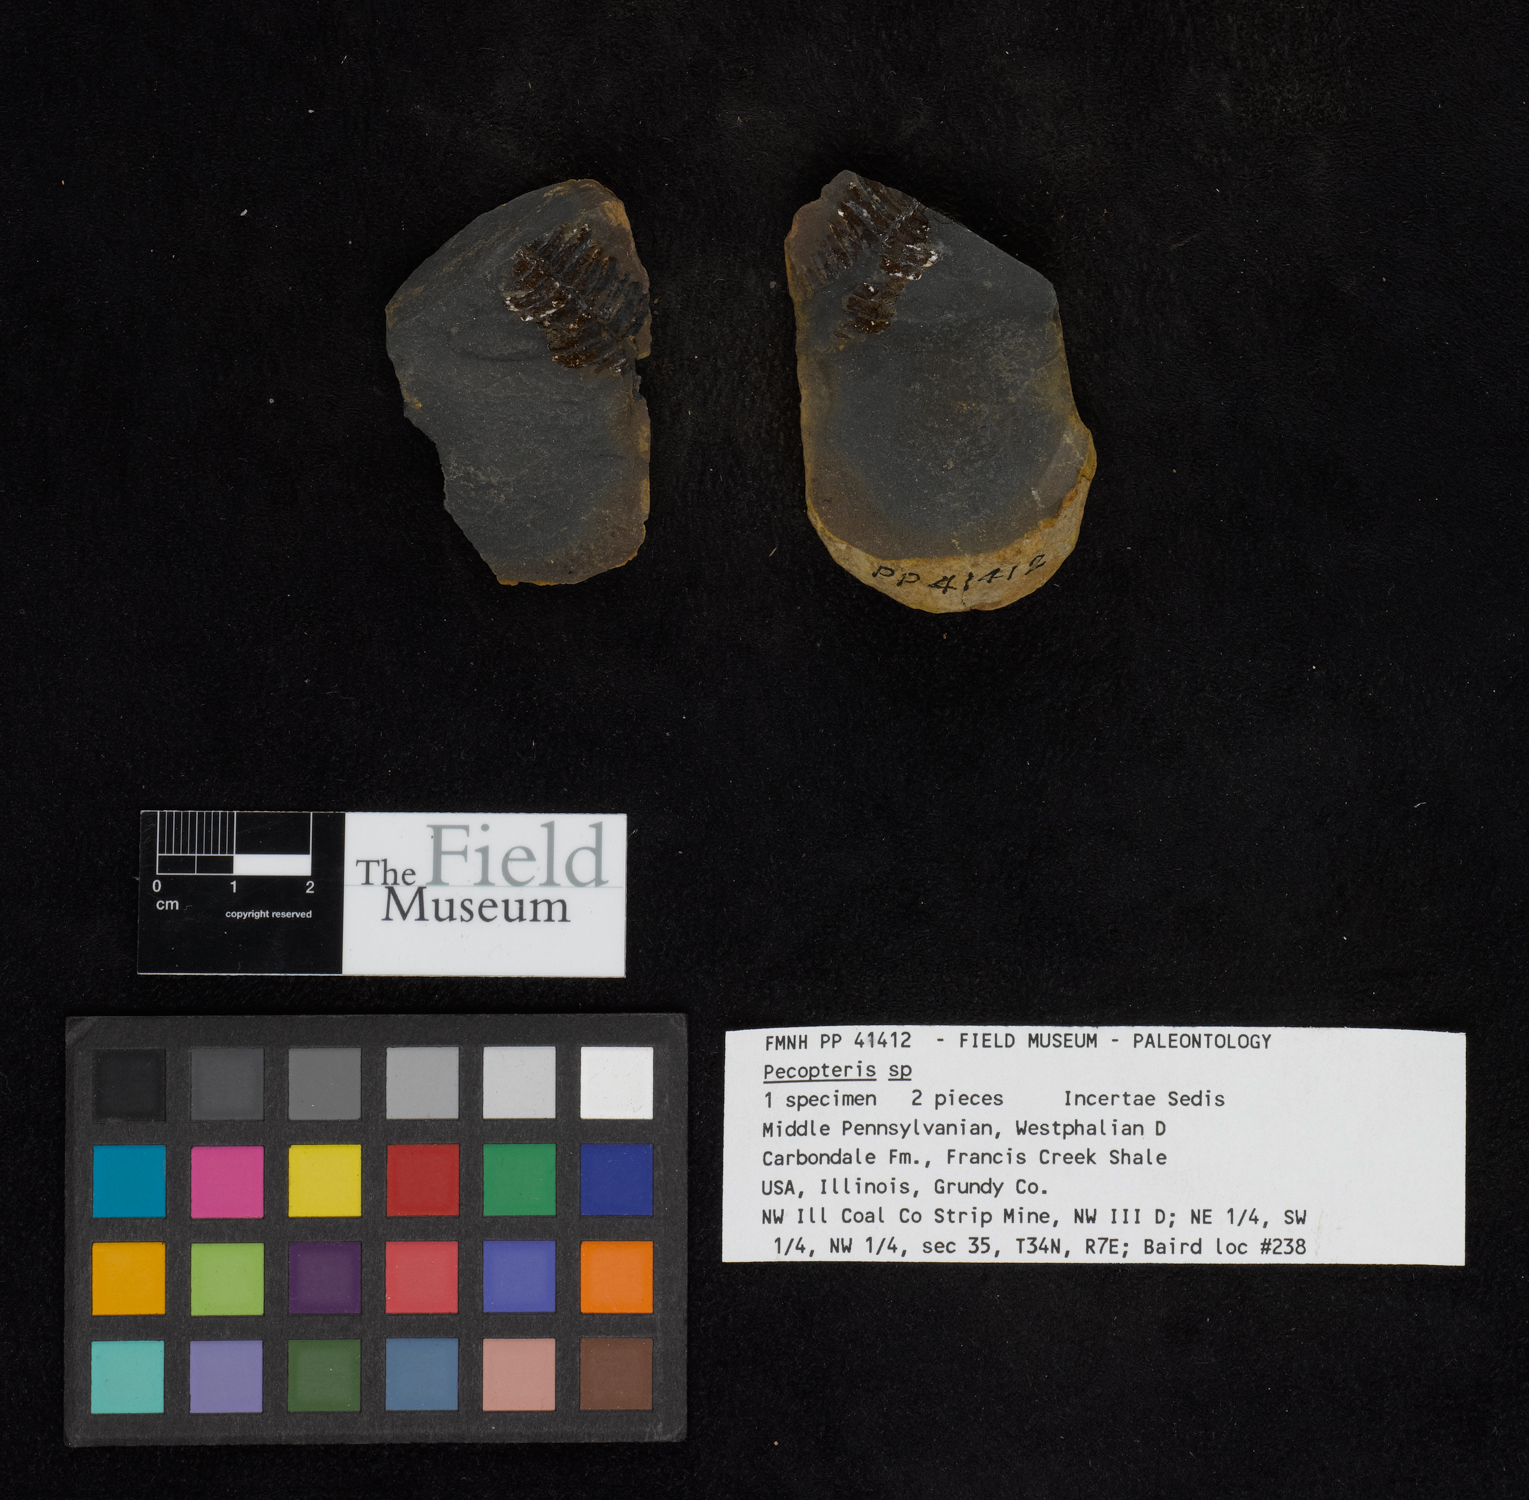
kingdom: Plantae
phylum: Tracheophyta
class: Polypodiopsida
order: Marattiales
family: Asterothecaceae
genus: Pecopteris
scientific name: Pecopteris
